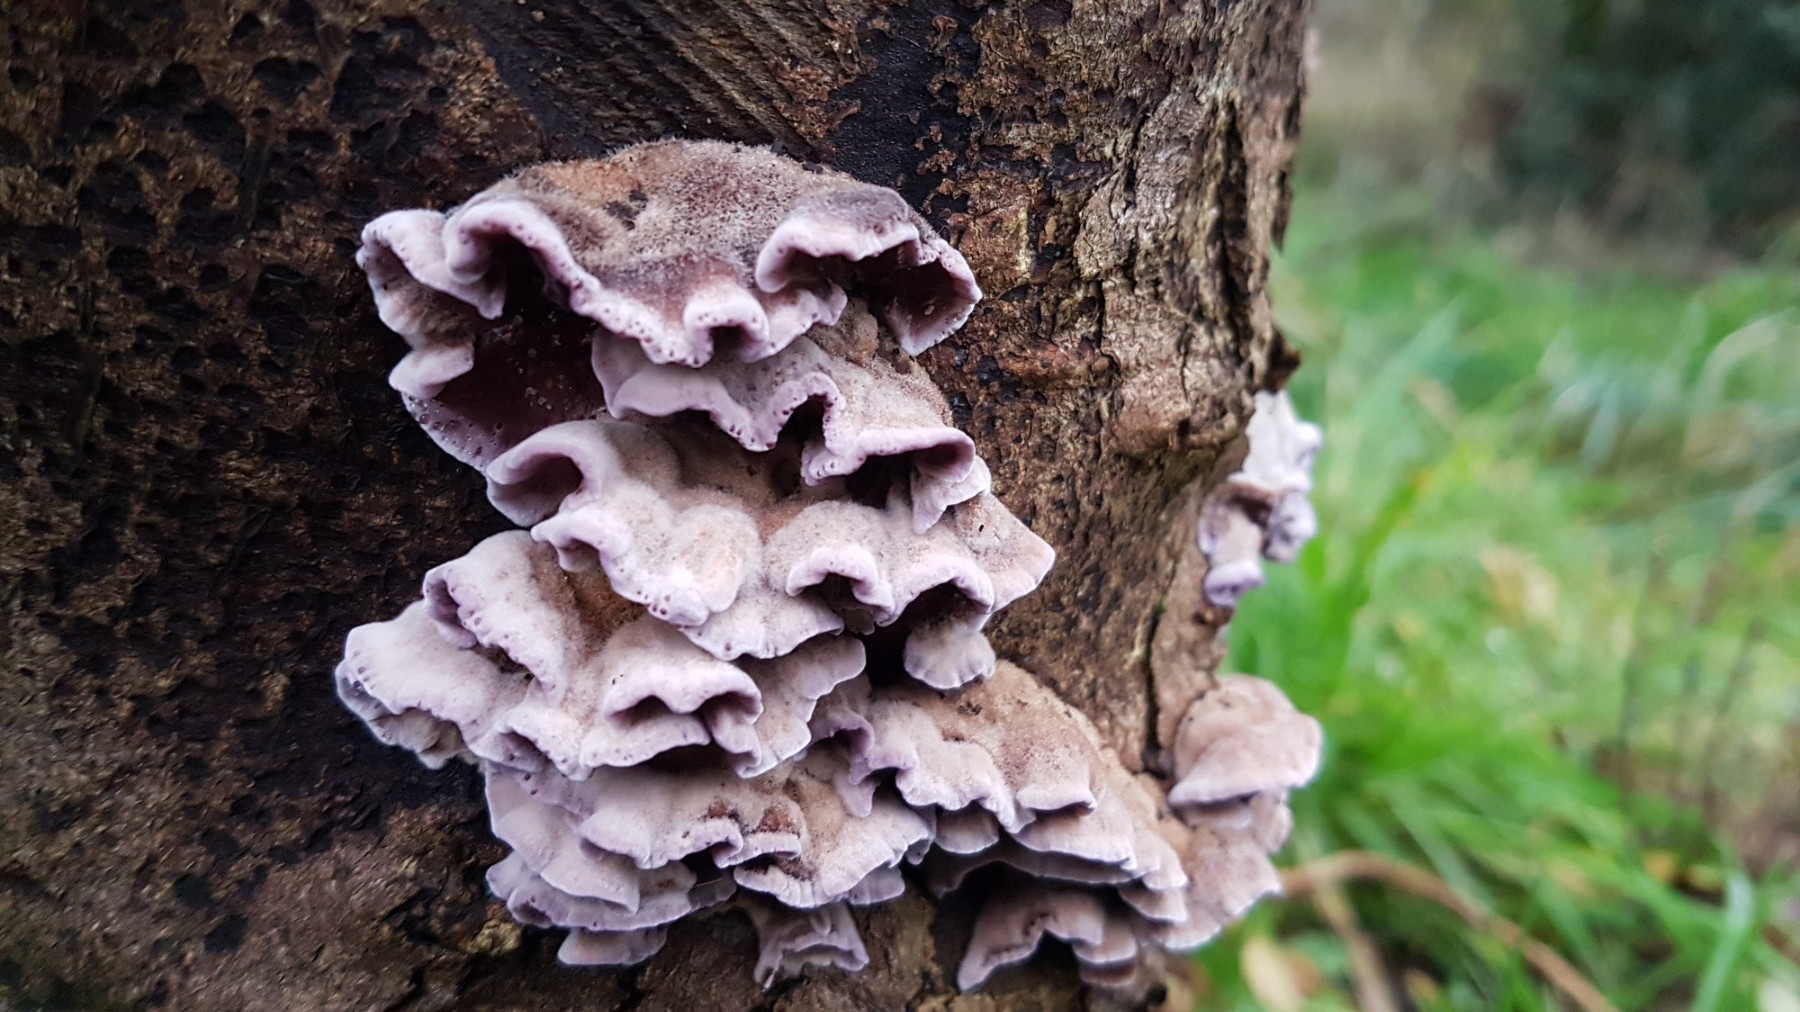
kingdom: Fungi
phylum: Basidiomycota
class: Agaricomycetes
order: Agaricales
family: Cyphellaceae
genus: Chondrostereum
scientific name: Chondrostereum
